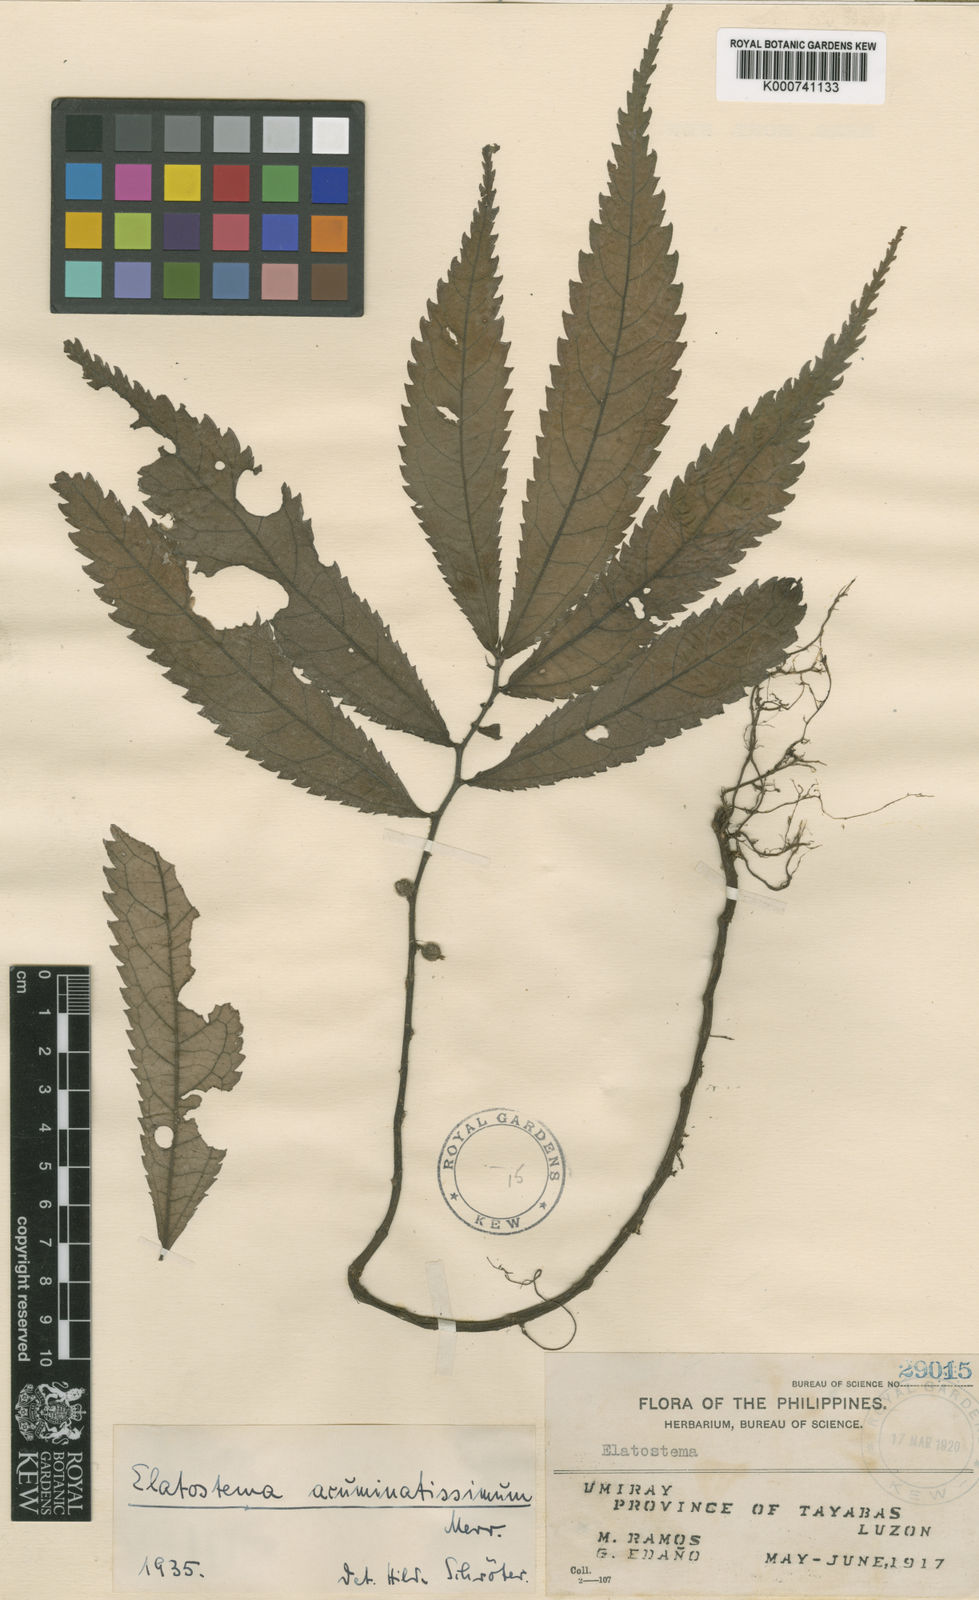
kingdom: Plantae
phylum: Tracheophyta
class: Magnoliopsida
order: Rosales
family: Urticaceae
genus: Elatostema
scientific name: Elatostema acuminatissimum
